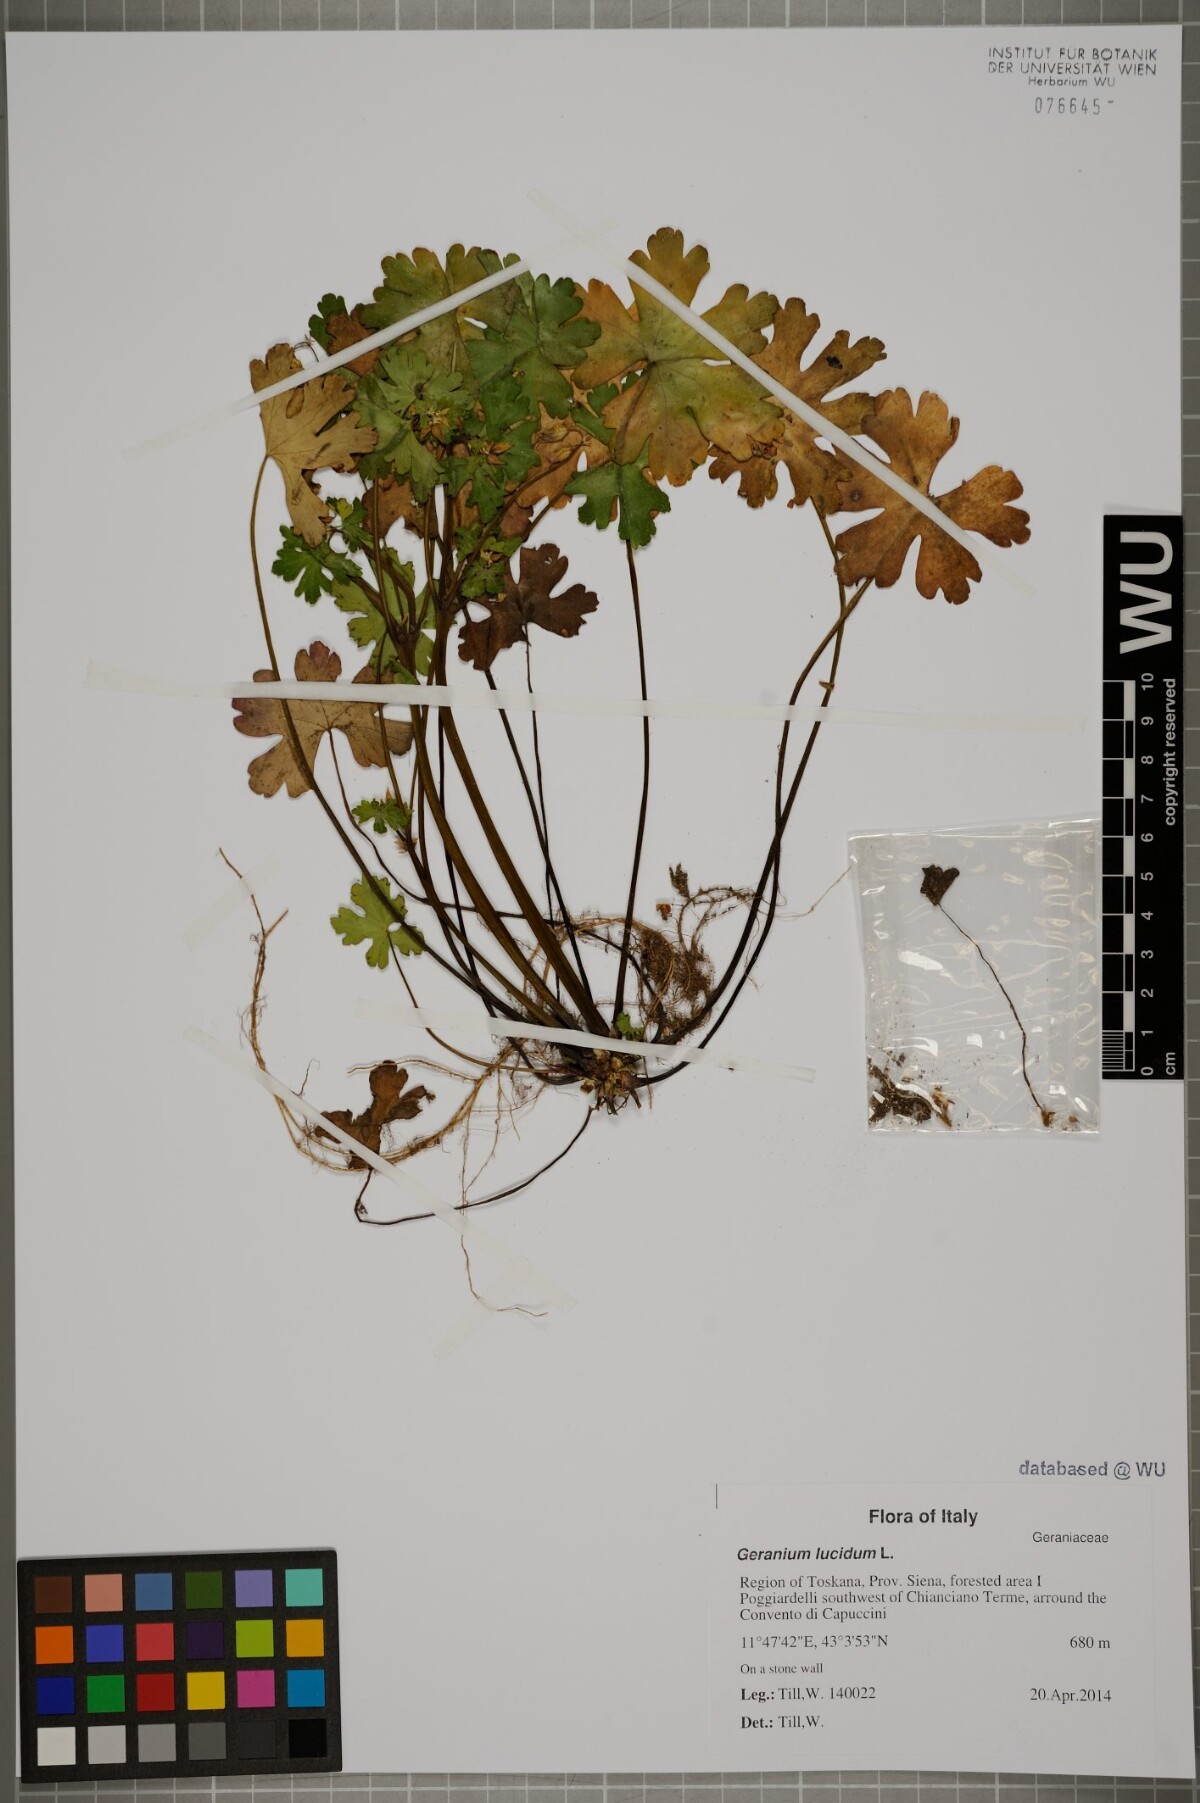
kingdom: Plantae
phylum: Tracheophyta
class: Magnoliopsida
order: Geraniales
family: Geraniaceae
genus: Geranium
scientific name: Geranium lucidum
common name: Shining crane's-bill
